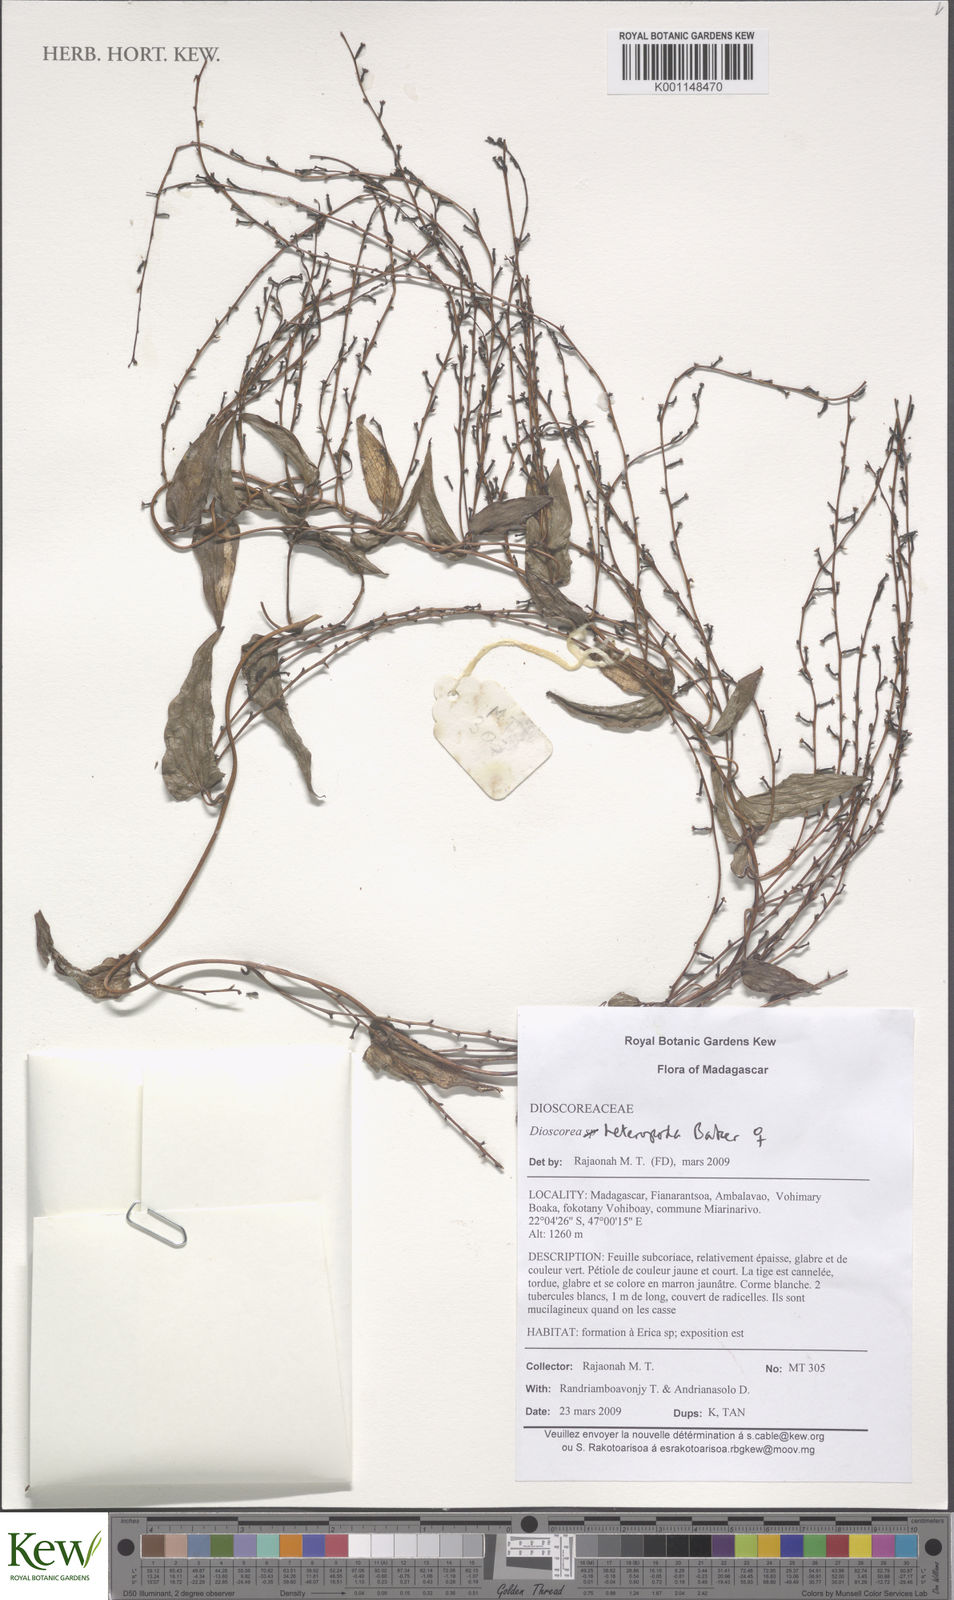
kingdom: Plantae
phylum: Tracheophyta
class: Liliopsida
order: Dioscoreales
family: Dioscoreaceae
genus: Dioscorea
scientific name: Dioscorea
